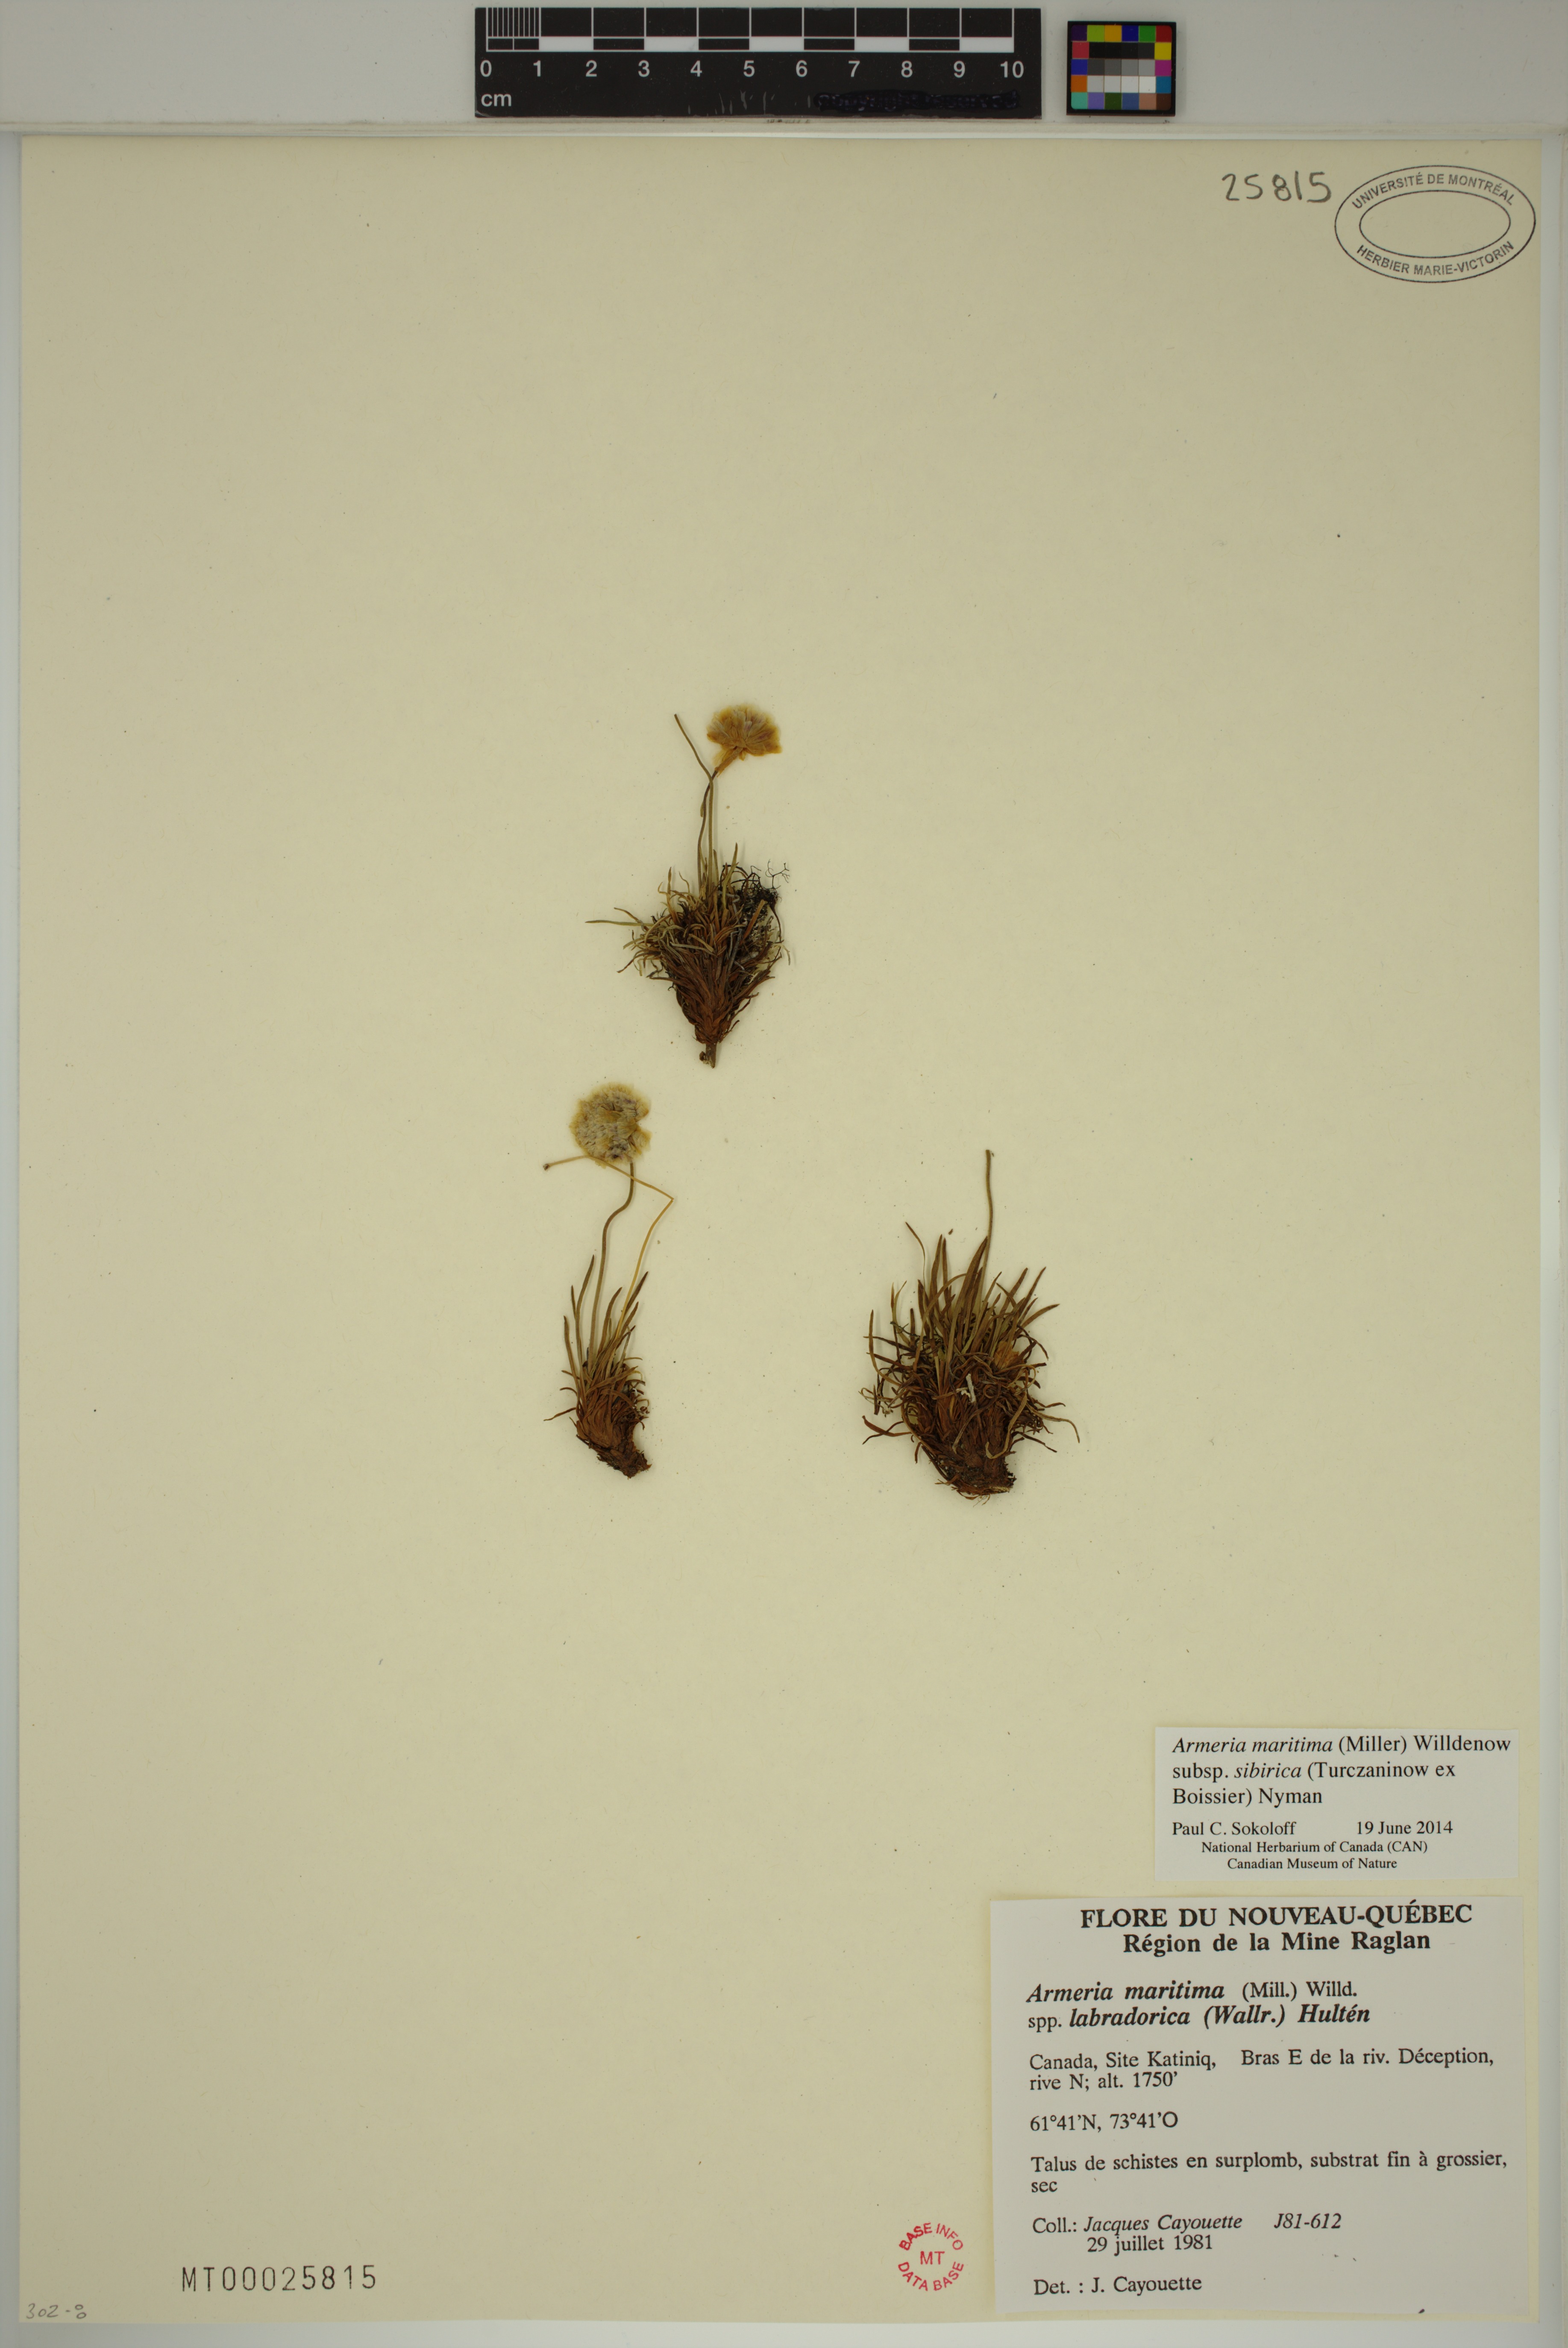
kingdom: Plantae
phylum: Tracheophyta
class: Magnoliopsida
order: Caryophyllales
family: Plumbaginaceae
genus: Armeria
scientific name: Armeria maritima
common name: Thrift
